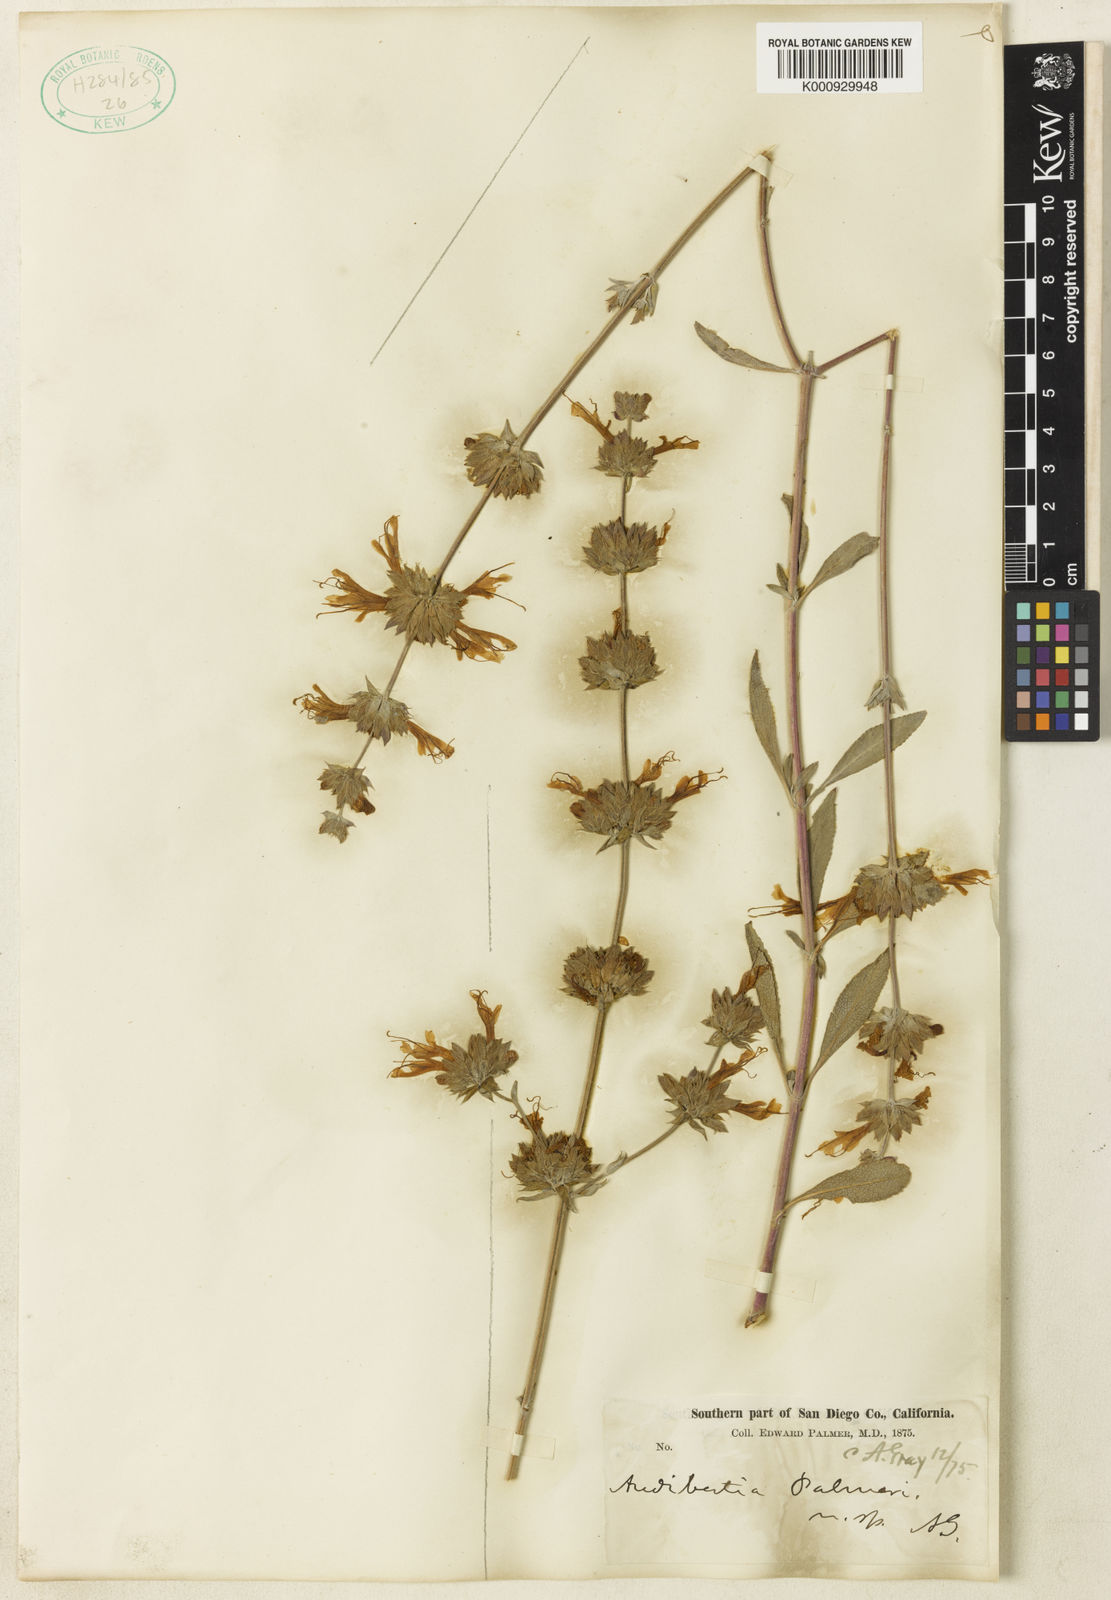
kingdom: Plantae
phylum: Tracheophyta
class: Magnoliopsida
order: Lamiales
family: Lamiaceae
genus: Salvia
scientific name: Salvia apiana
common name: White sage
